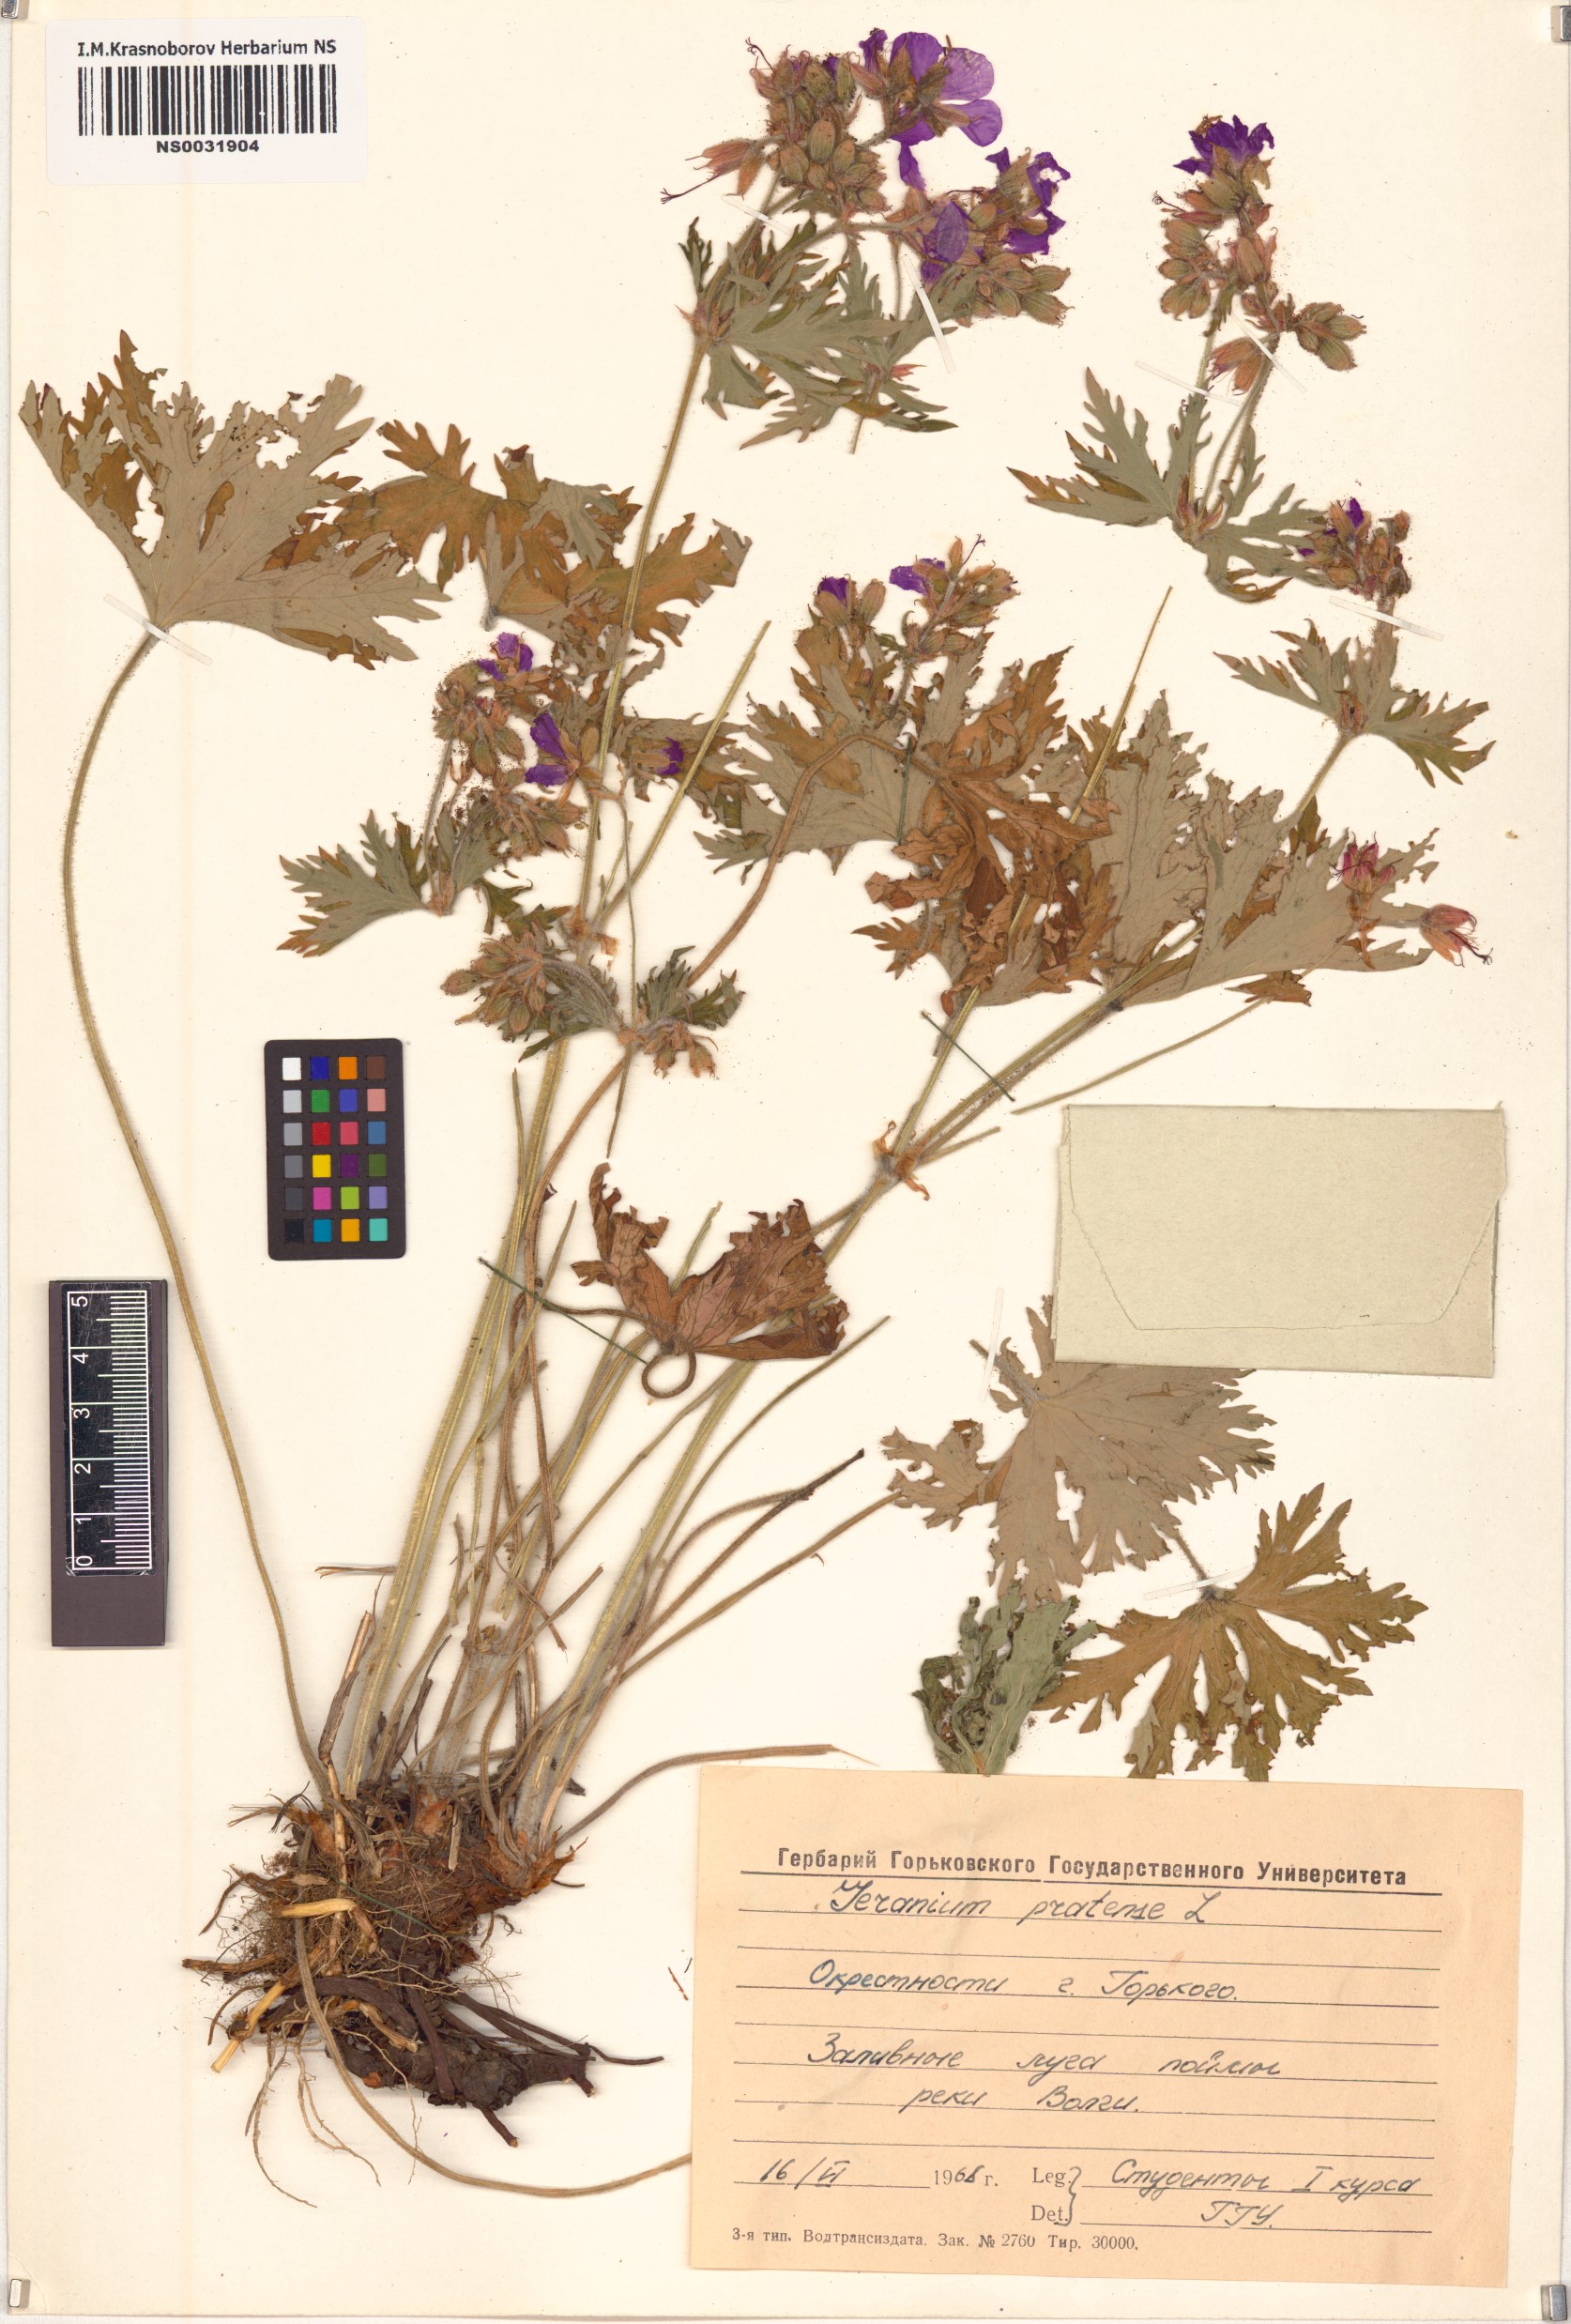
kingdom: Plantae
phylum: Tracheophyta
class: Magnoliopsida
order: Geraniales
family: Geraniaceae
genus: Geranium
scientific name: Geranium pratense
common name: Meadow crane's-bill
